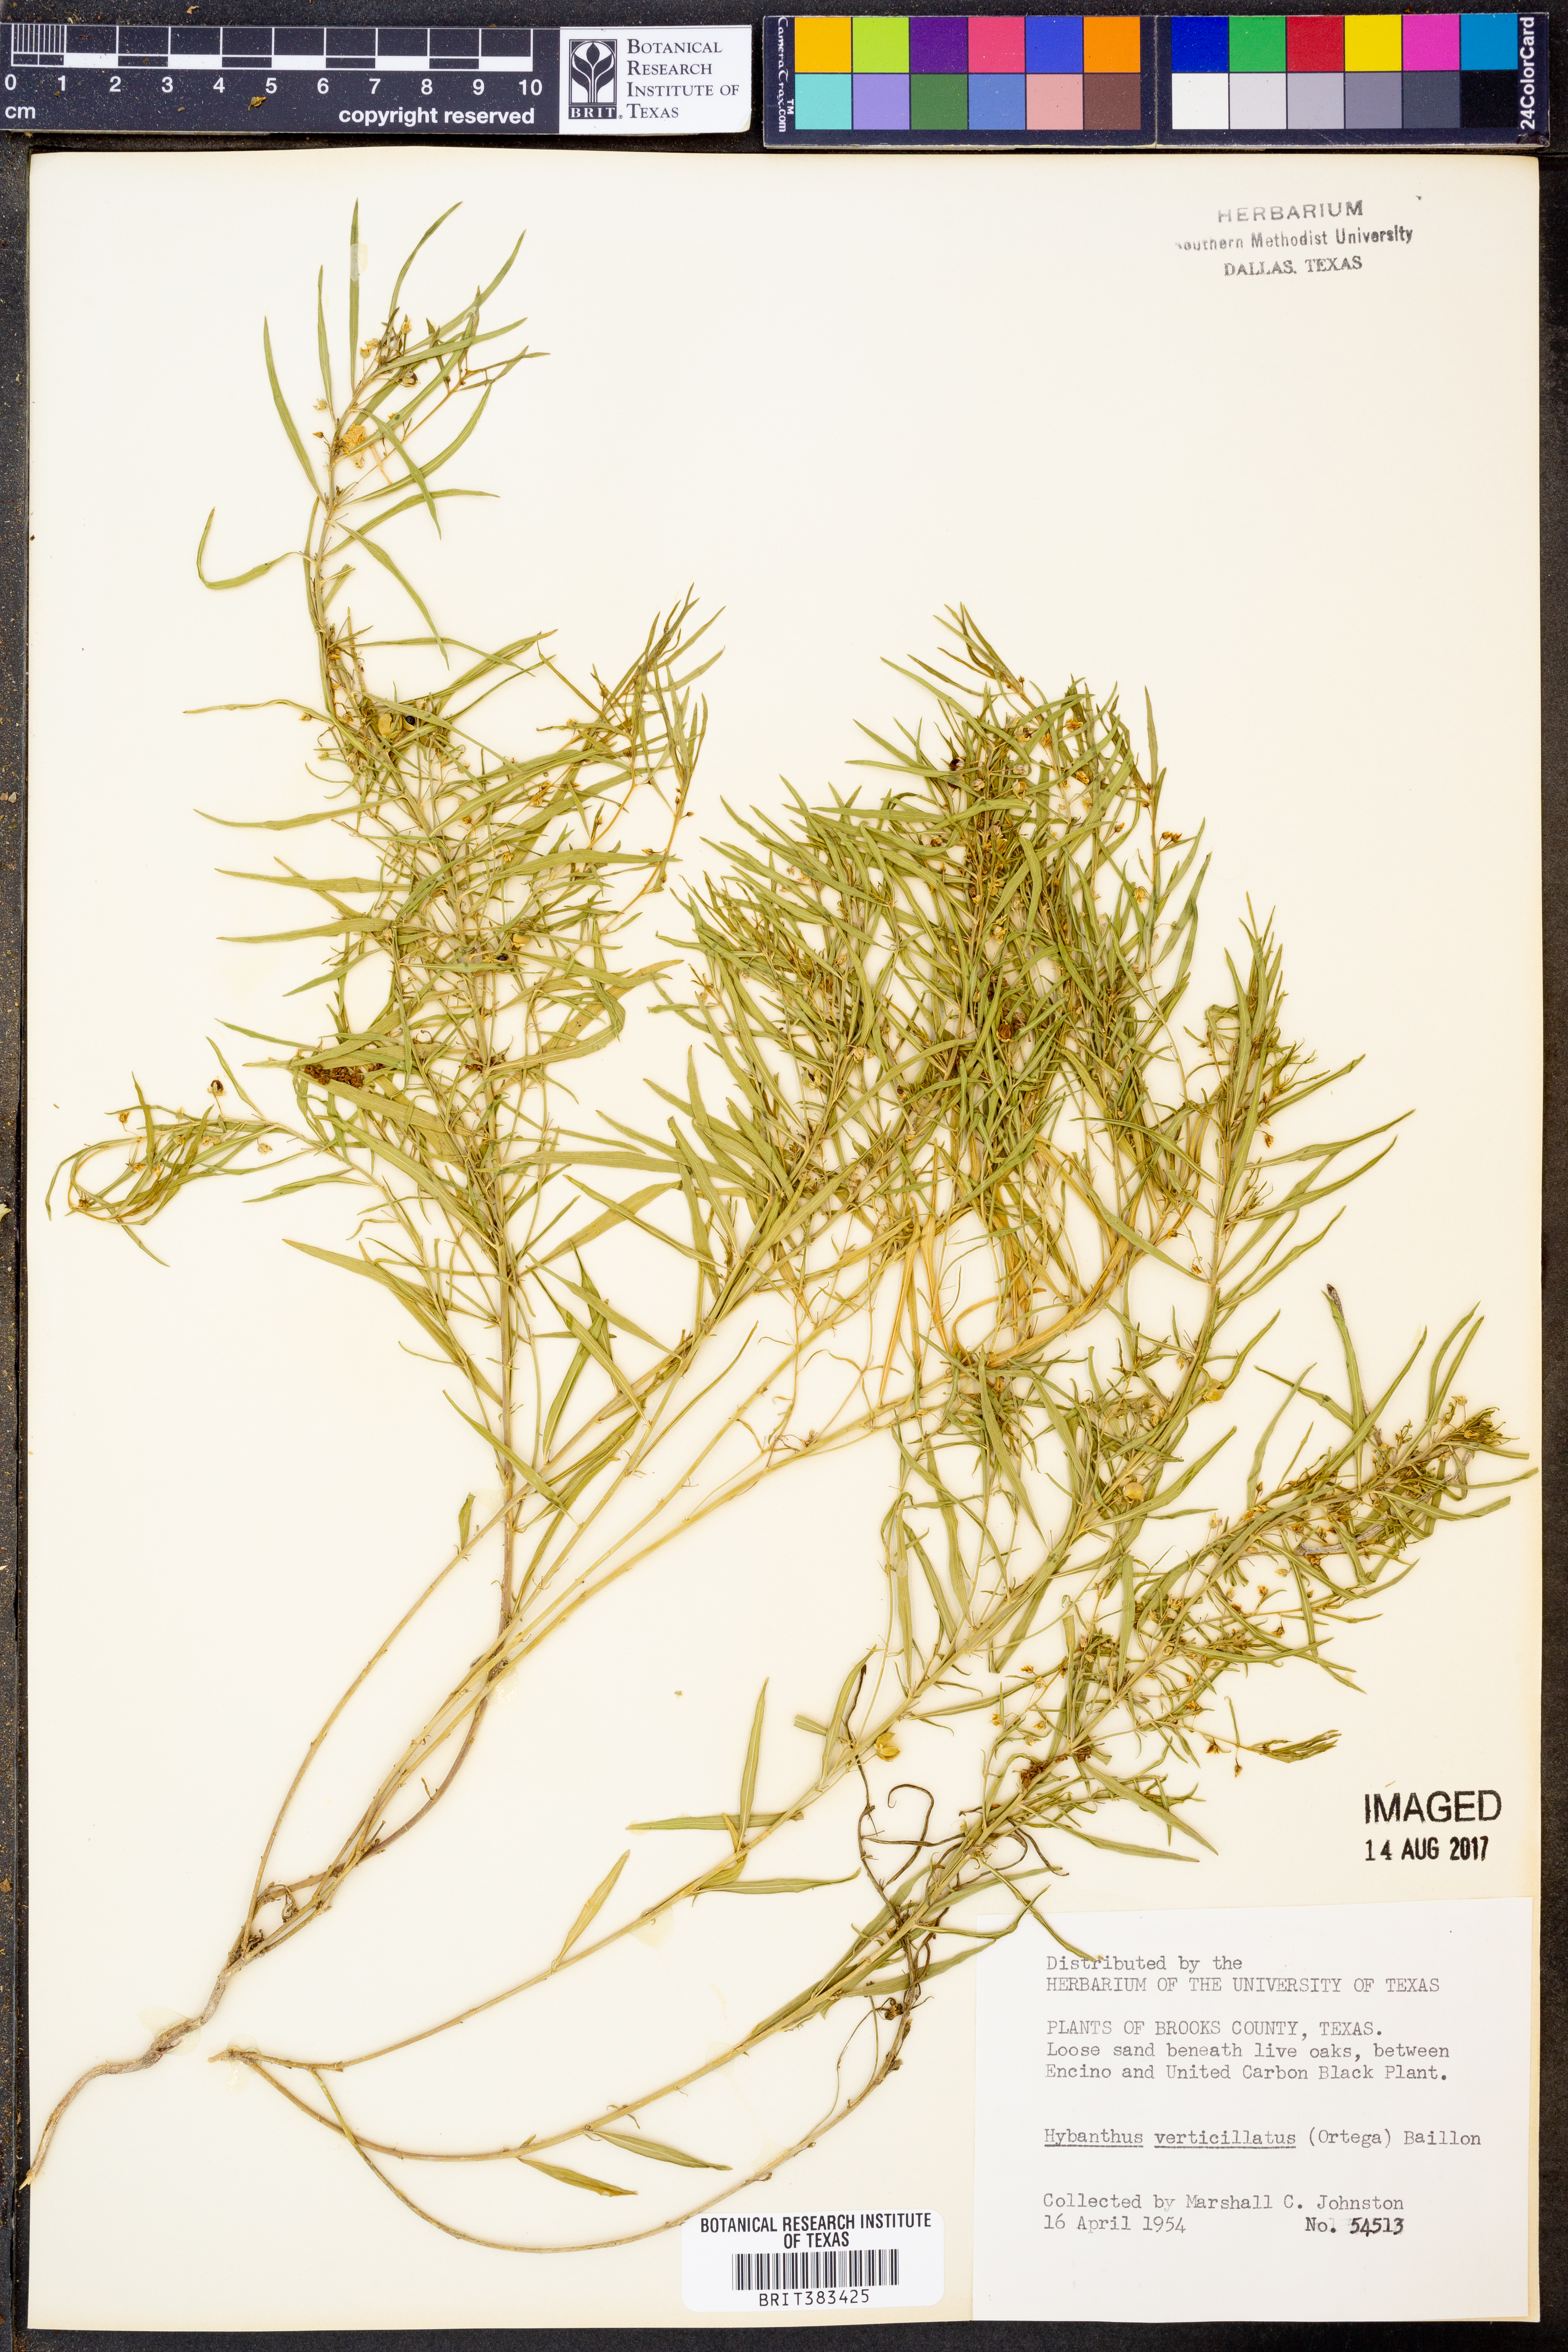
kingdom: Plantae
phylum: Tracheophyta
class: Magnoliopsida
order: Malpighiales
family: Violaceae
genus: Pombalia
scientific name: Pombalia verticillata
